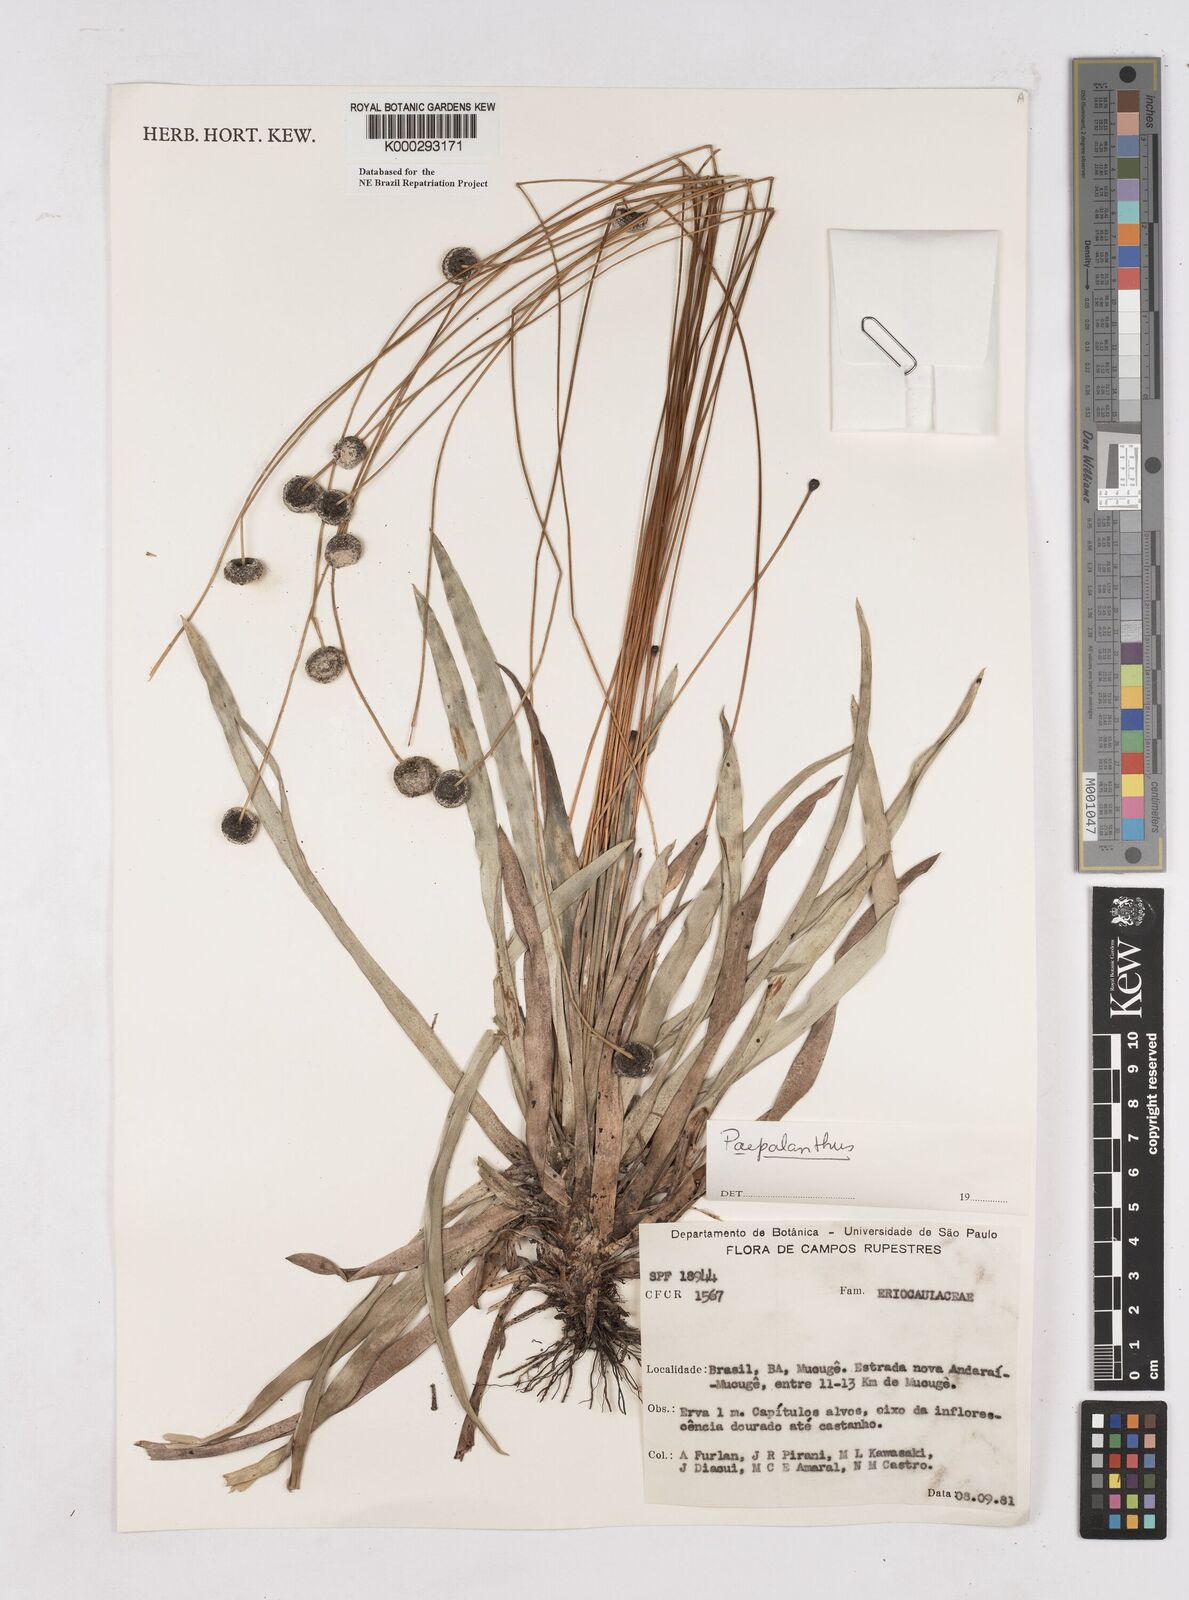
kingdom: Plantae
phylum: Tracheophyta
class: Liliopsida
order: Poales
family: Eriocaulaceae
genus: Paepalanthus
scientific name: Paepalanthus
